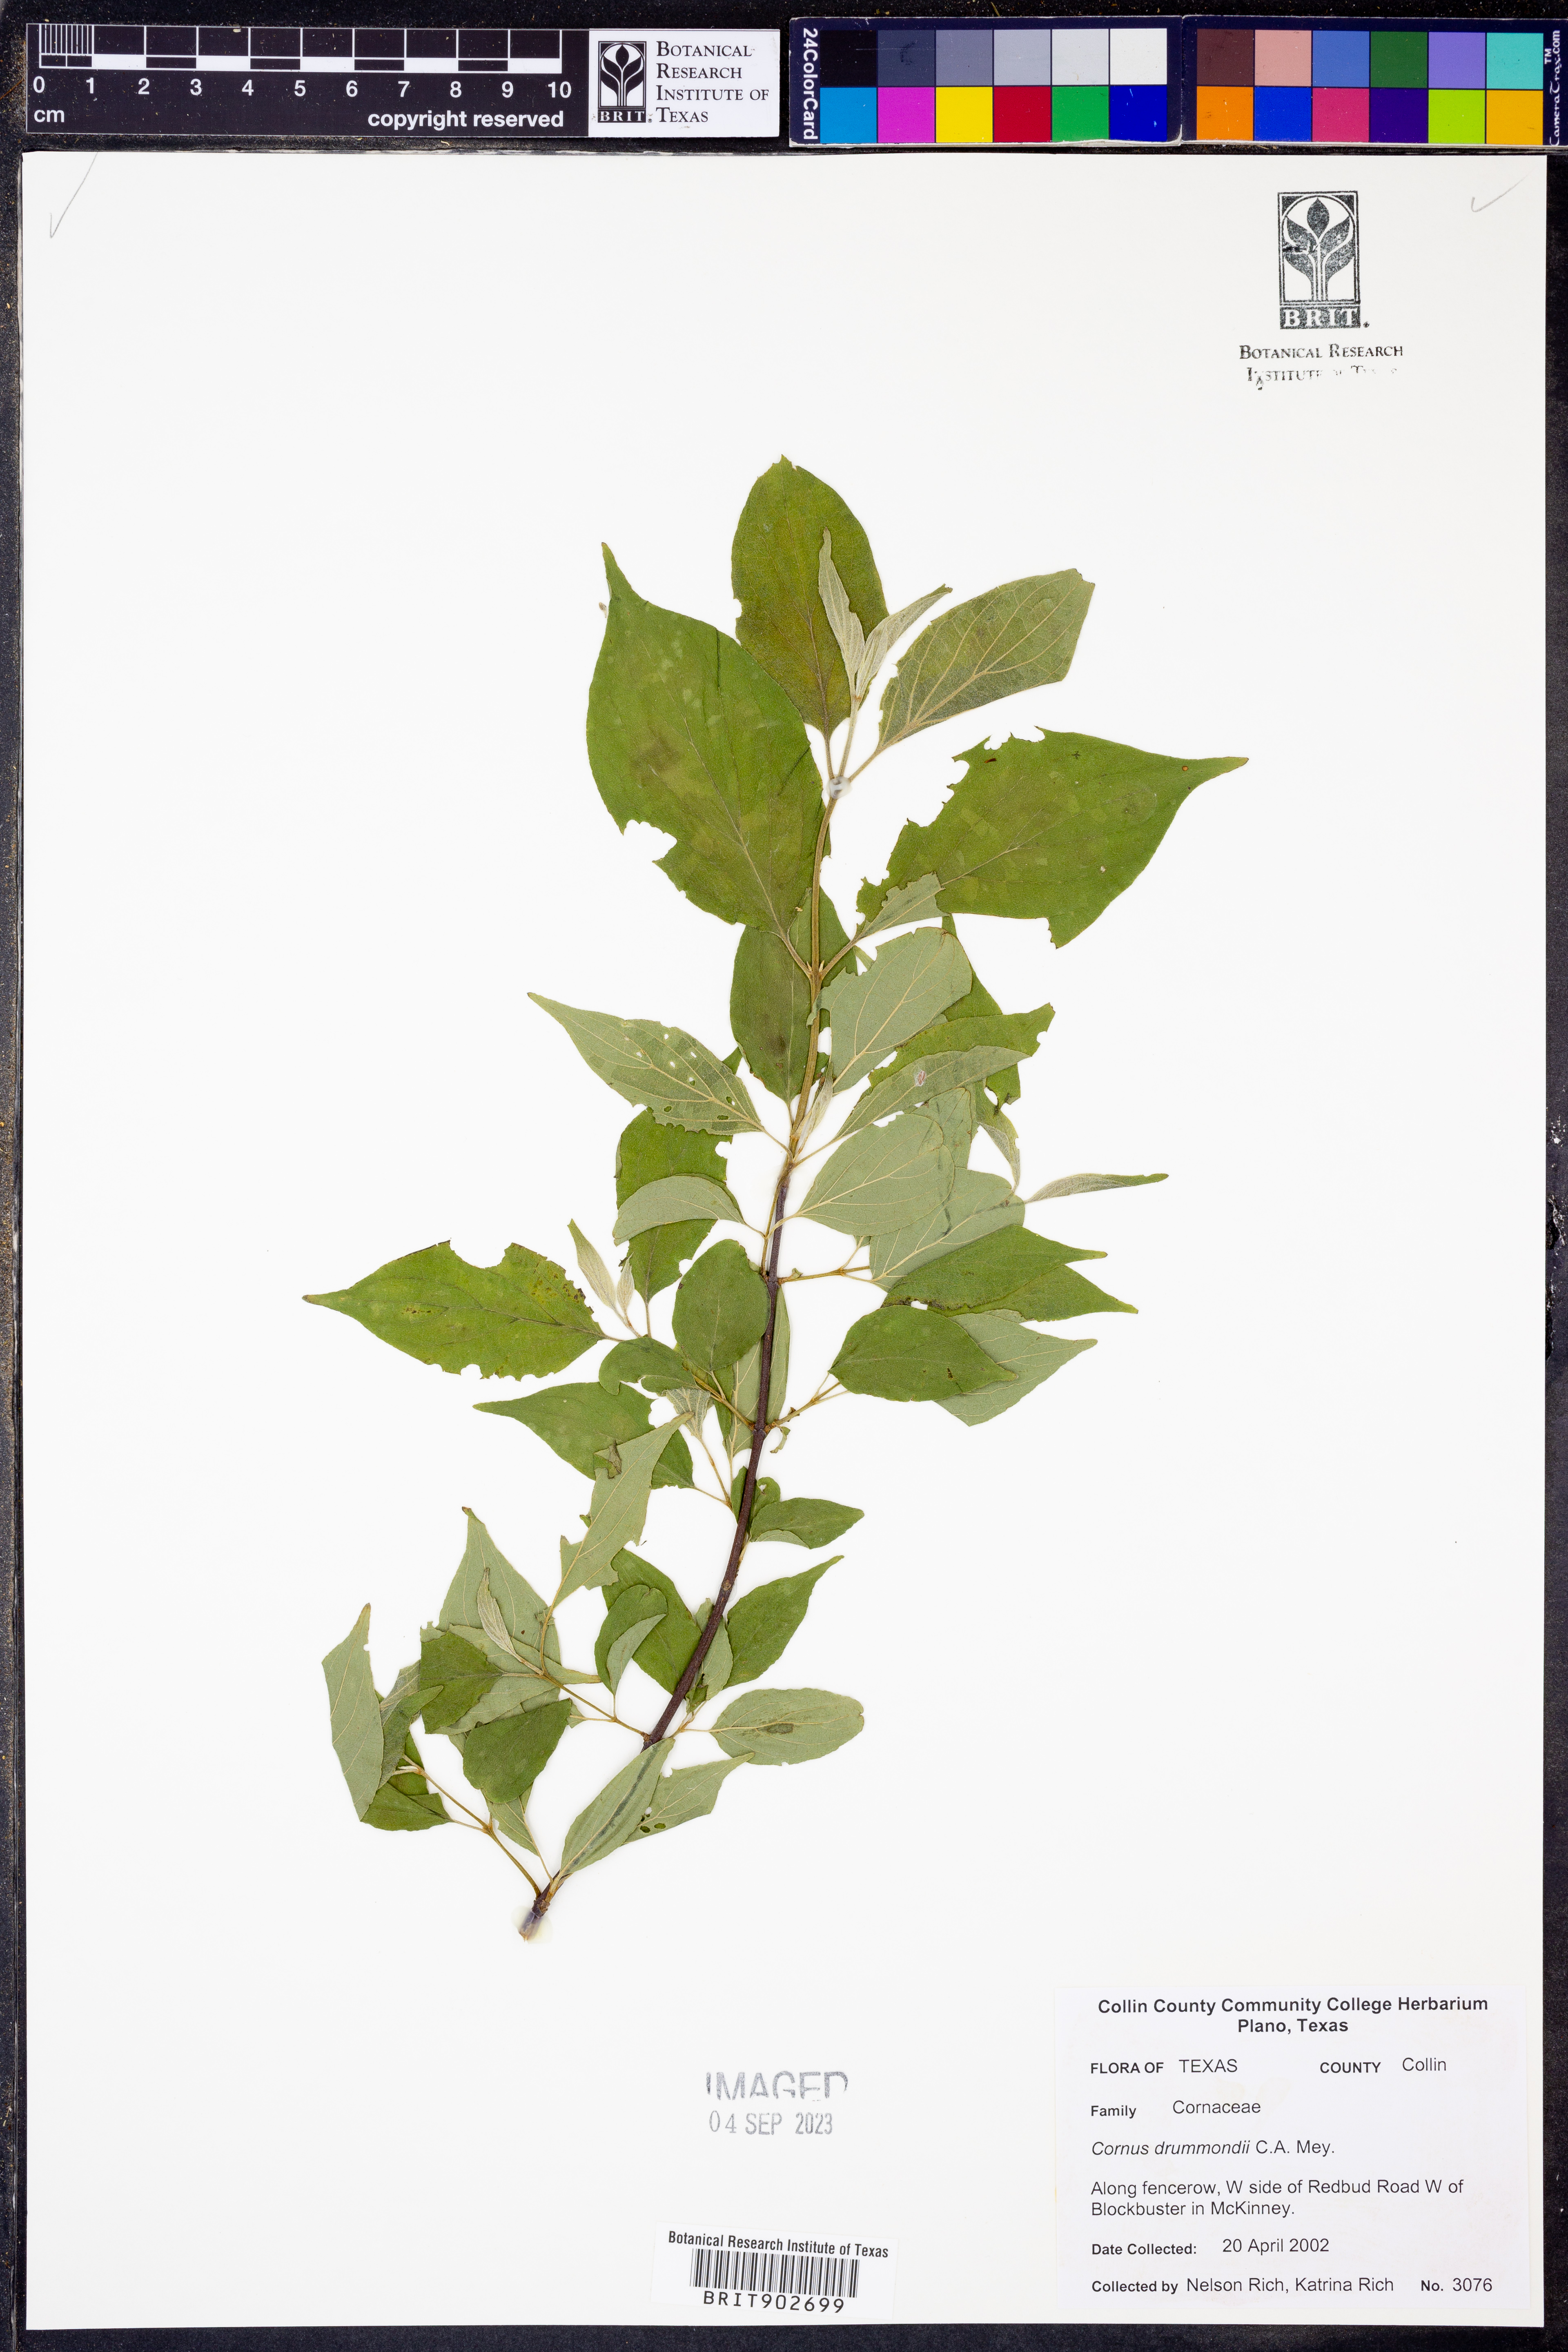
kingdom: Plantae
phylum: Tracheophyta
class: Magnoliopsida
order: Cornales
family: Cornaceae
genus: Cornus
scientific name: Cornus drummondii
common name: Rough-leaf dogwood
